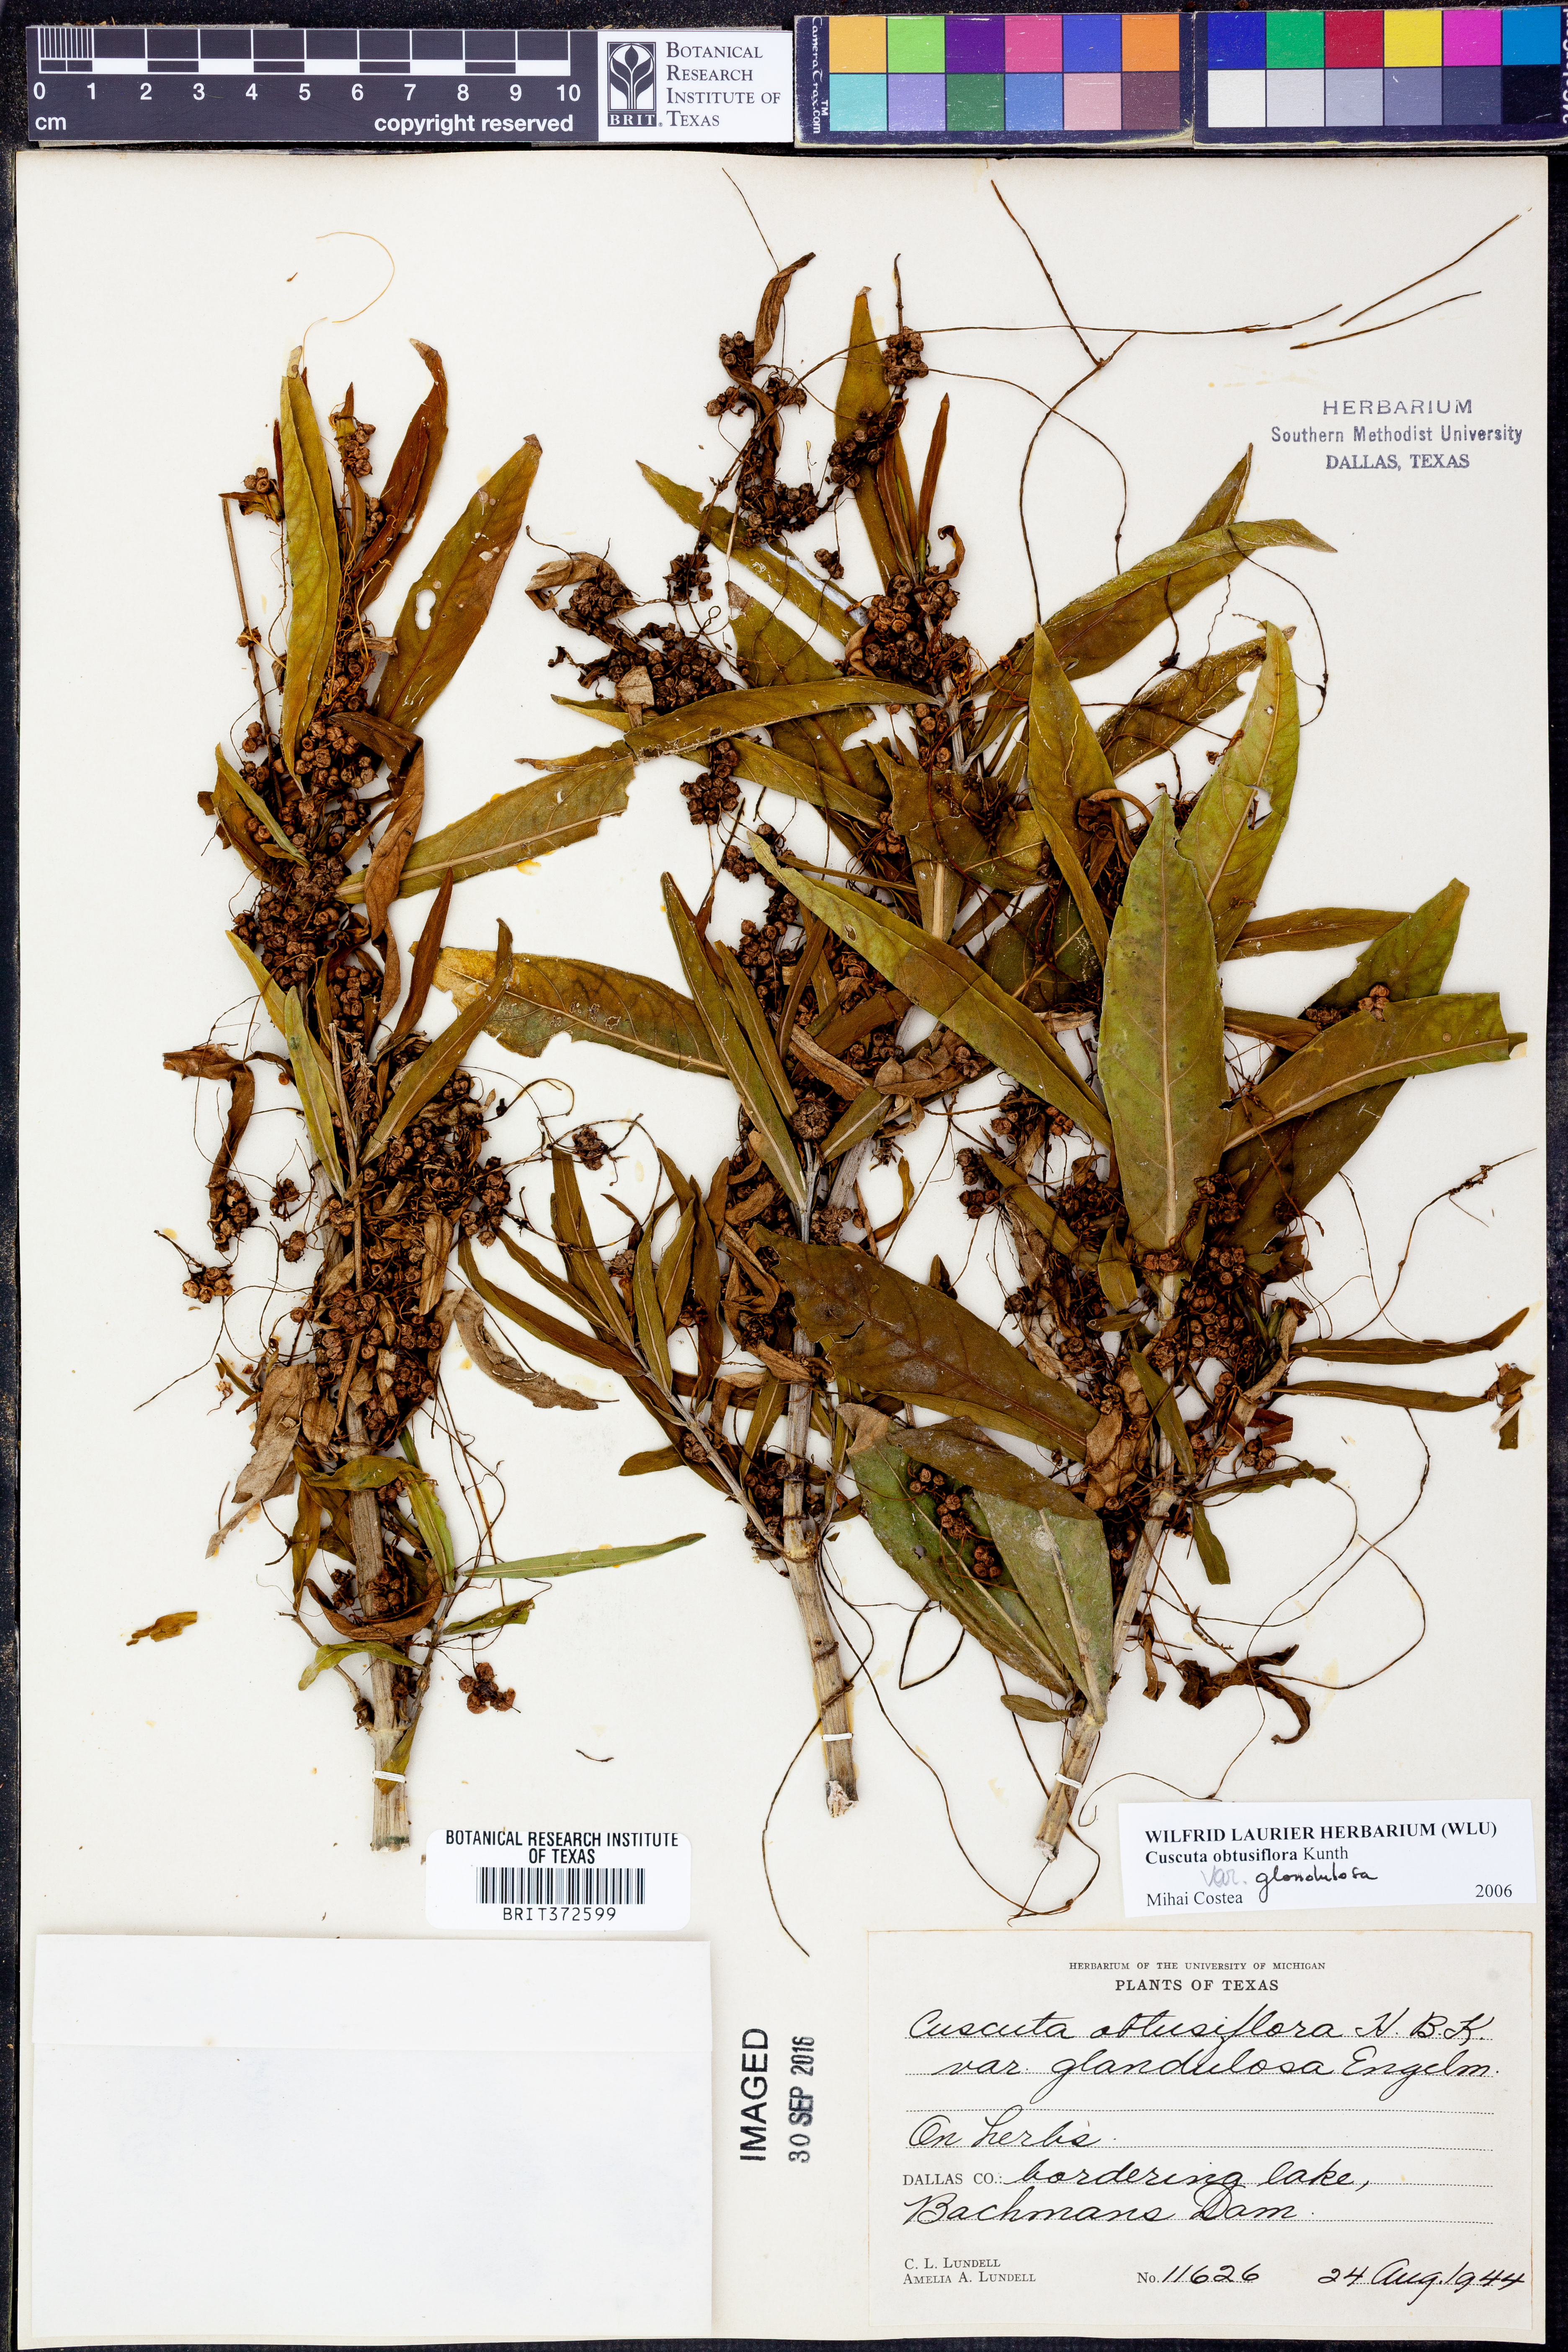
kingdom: Plantae
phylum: Tracheophyta
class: Magnoliopsida
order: Solanales
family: Convolvulaceae
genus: Cuscuta
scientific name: Cuscuta obtusiflora
